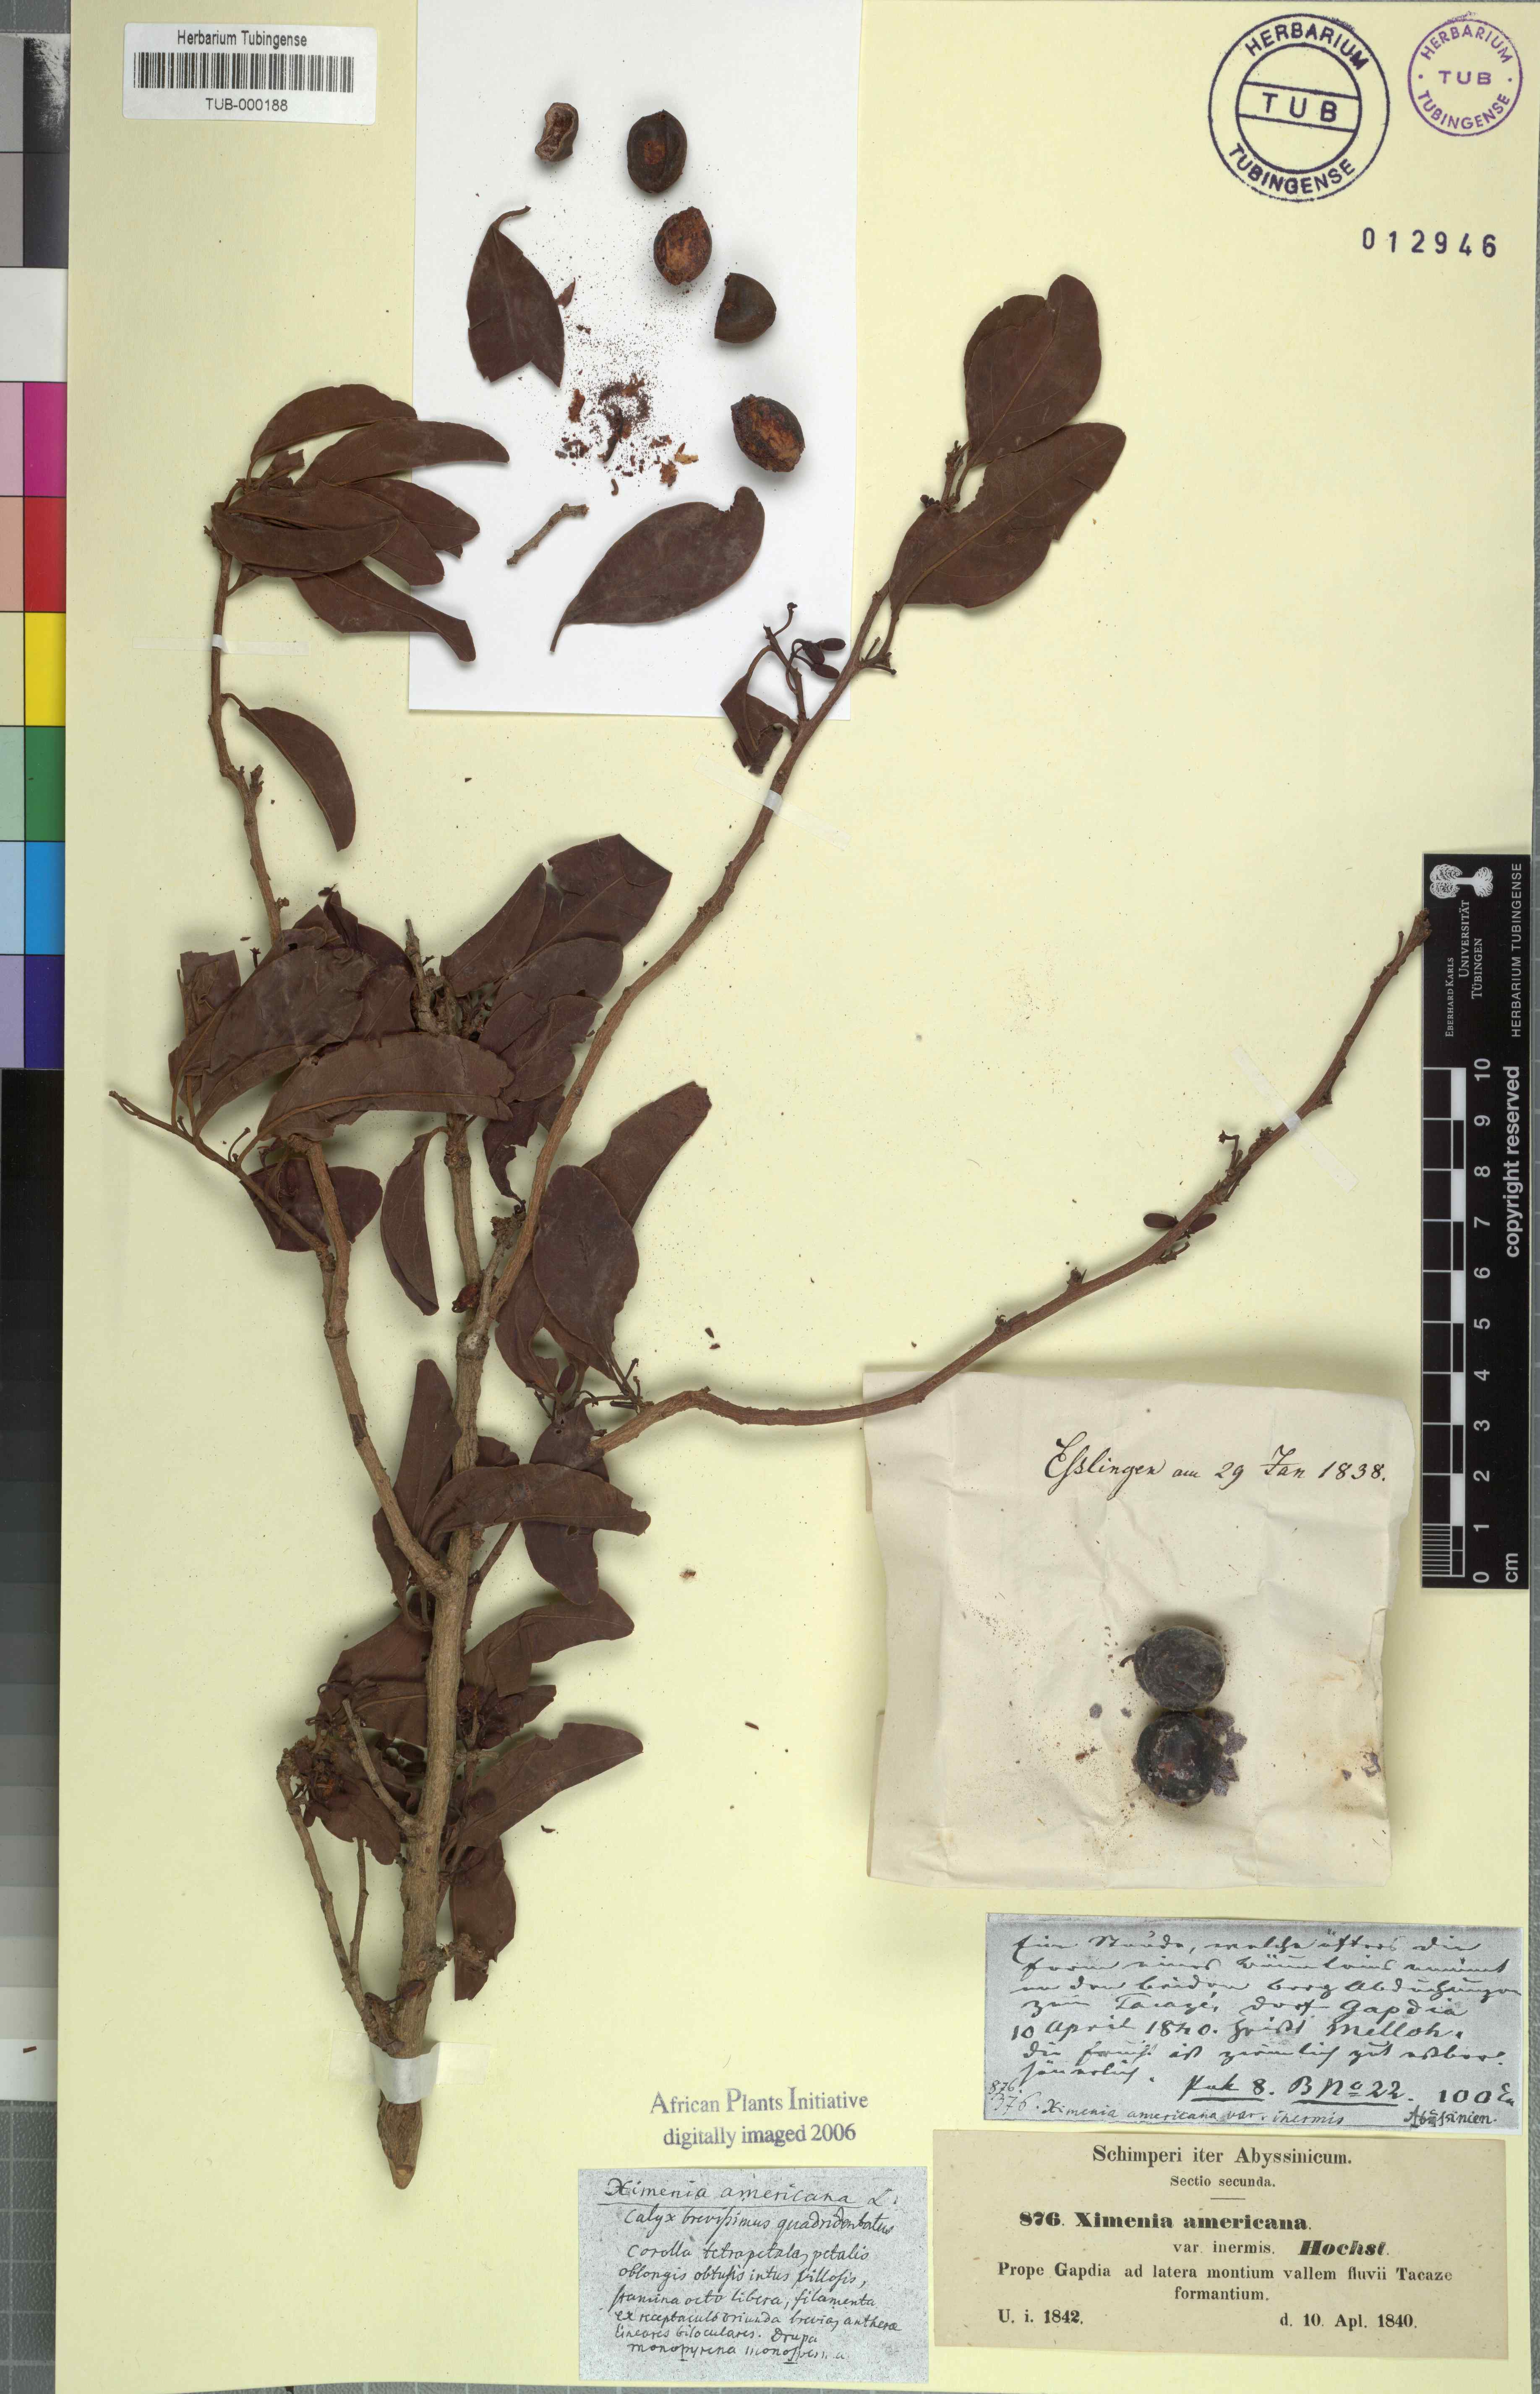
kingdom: Plantae
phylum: Tracheophyta
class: Magnoliopsida
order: Santalales
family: Ximeniaceae
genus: Ximenia
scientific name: Ximenia americana
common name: Tallowwood
